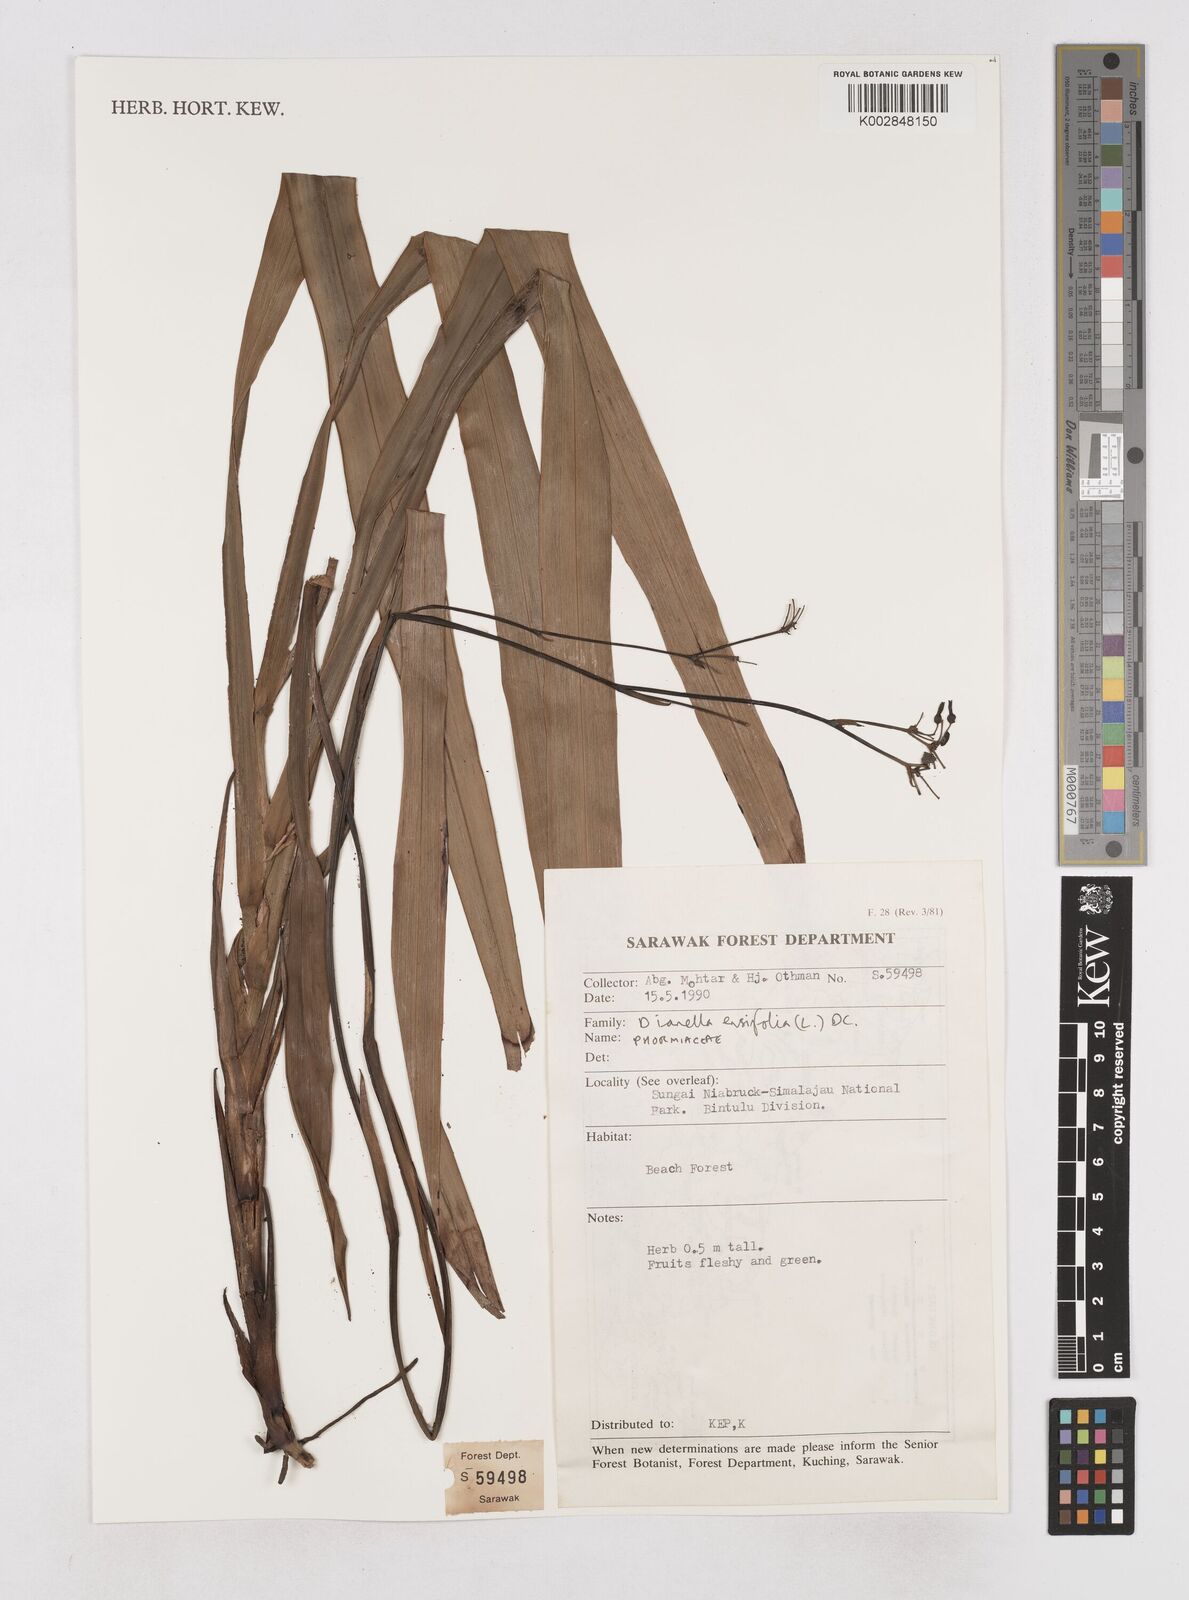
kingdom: Plantae
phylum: Tracheophyta
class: Liliopsida
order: Asparagales
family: Asphodelaceae
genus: Dianella
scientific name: Dianella ensifolia
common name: New zealand lilyplant
